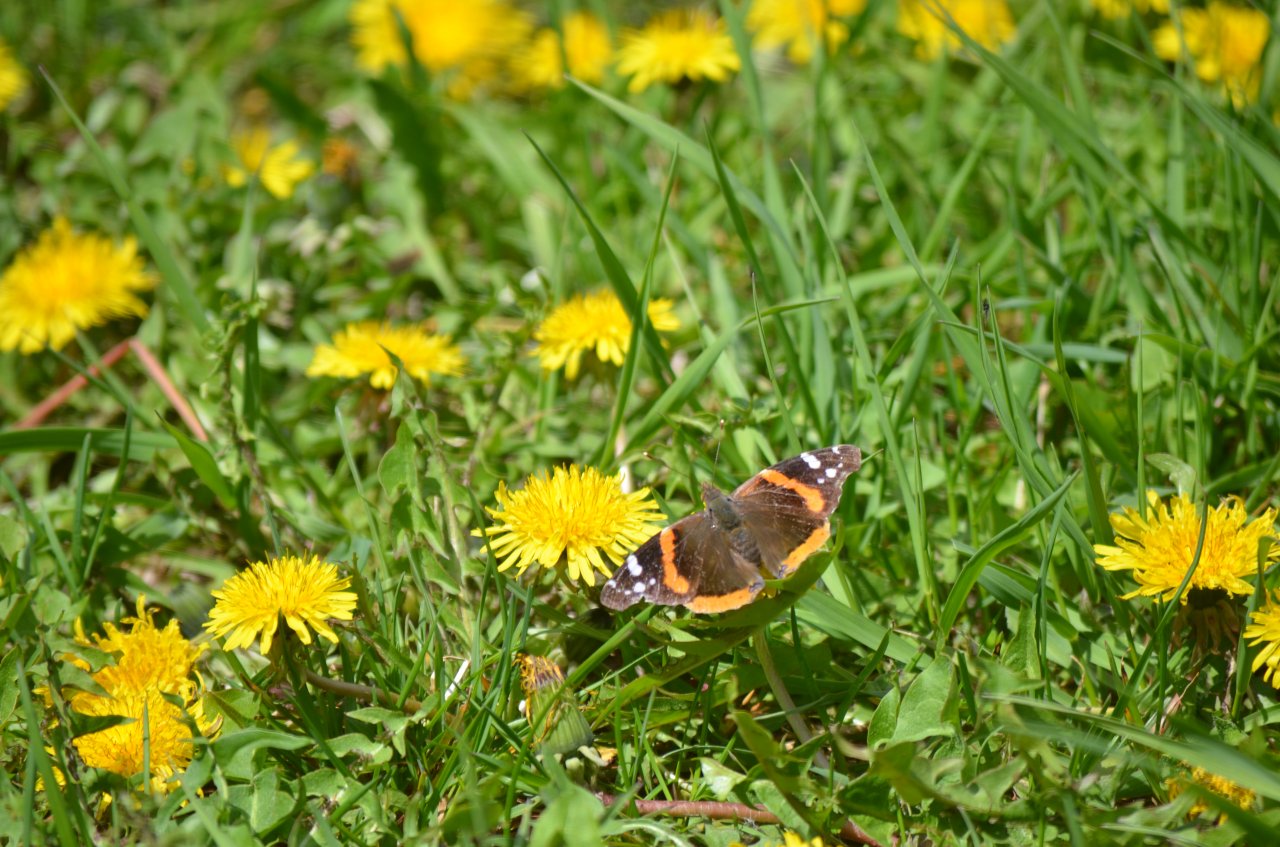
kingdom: Animalia
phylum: Arthropoda
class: Insecta
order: Lepidoptera
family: Nymphalidae
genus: Vanessa
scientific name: Vanessa atalanta
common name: Red Admiral
